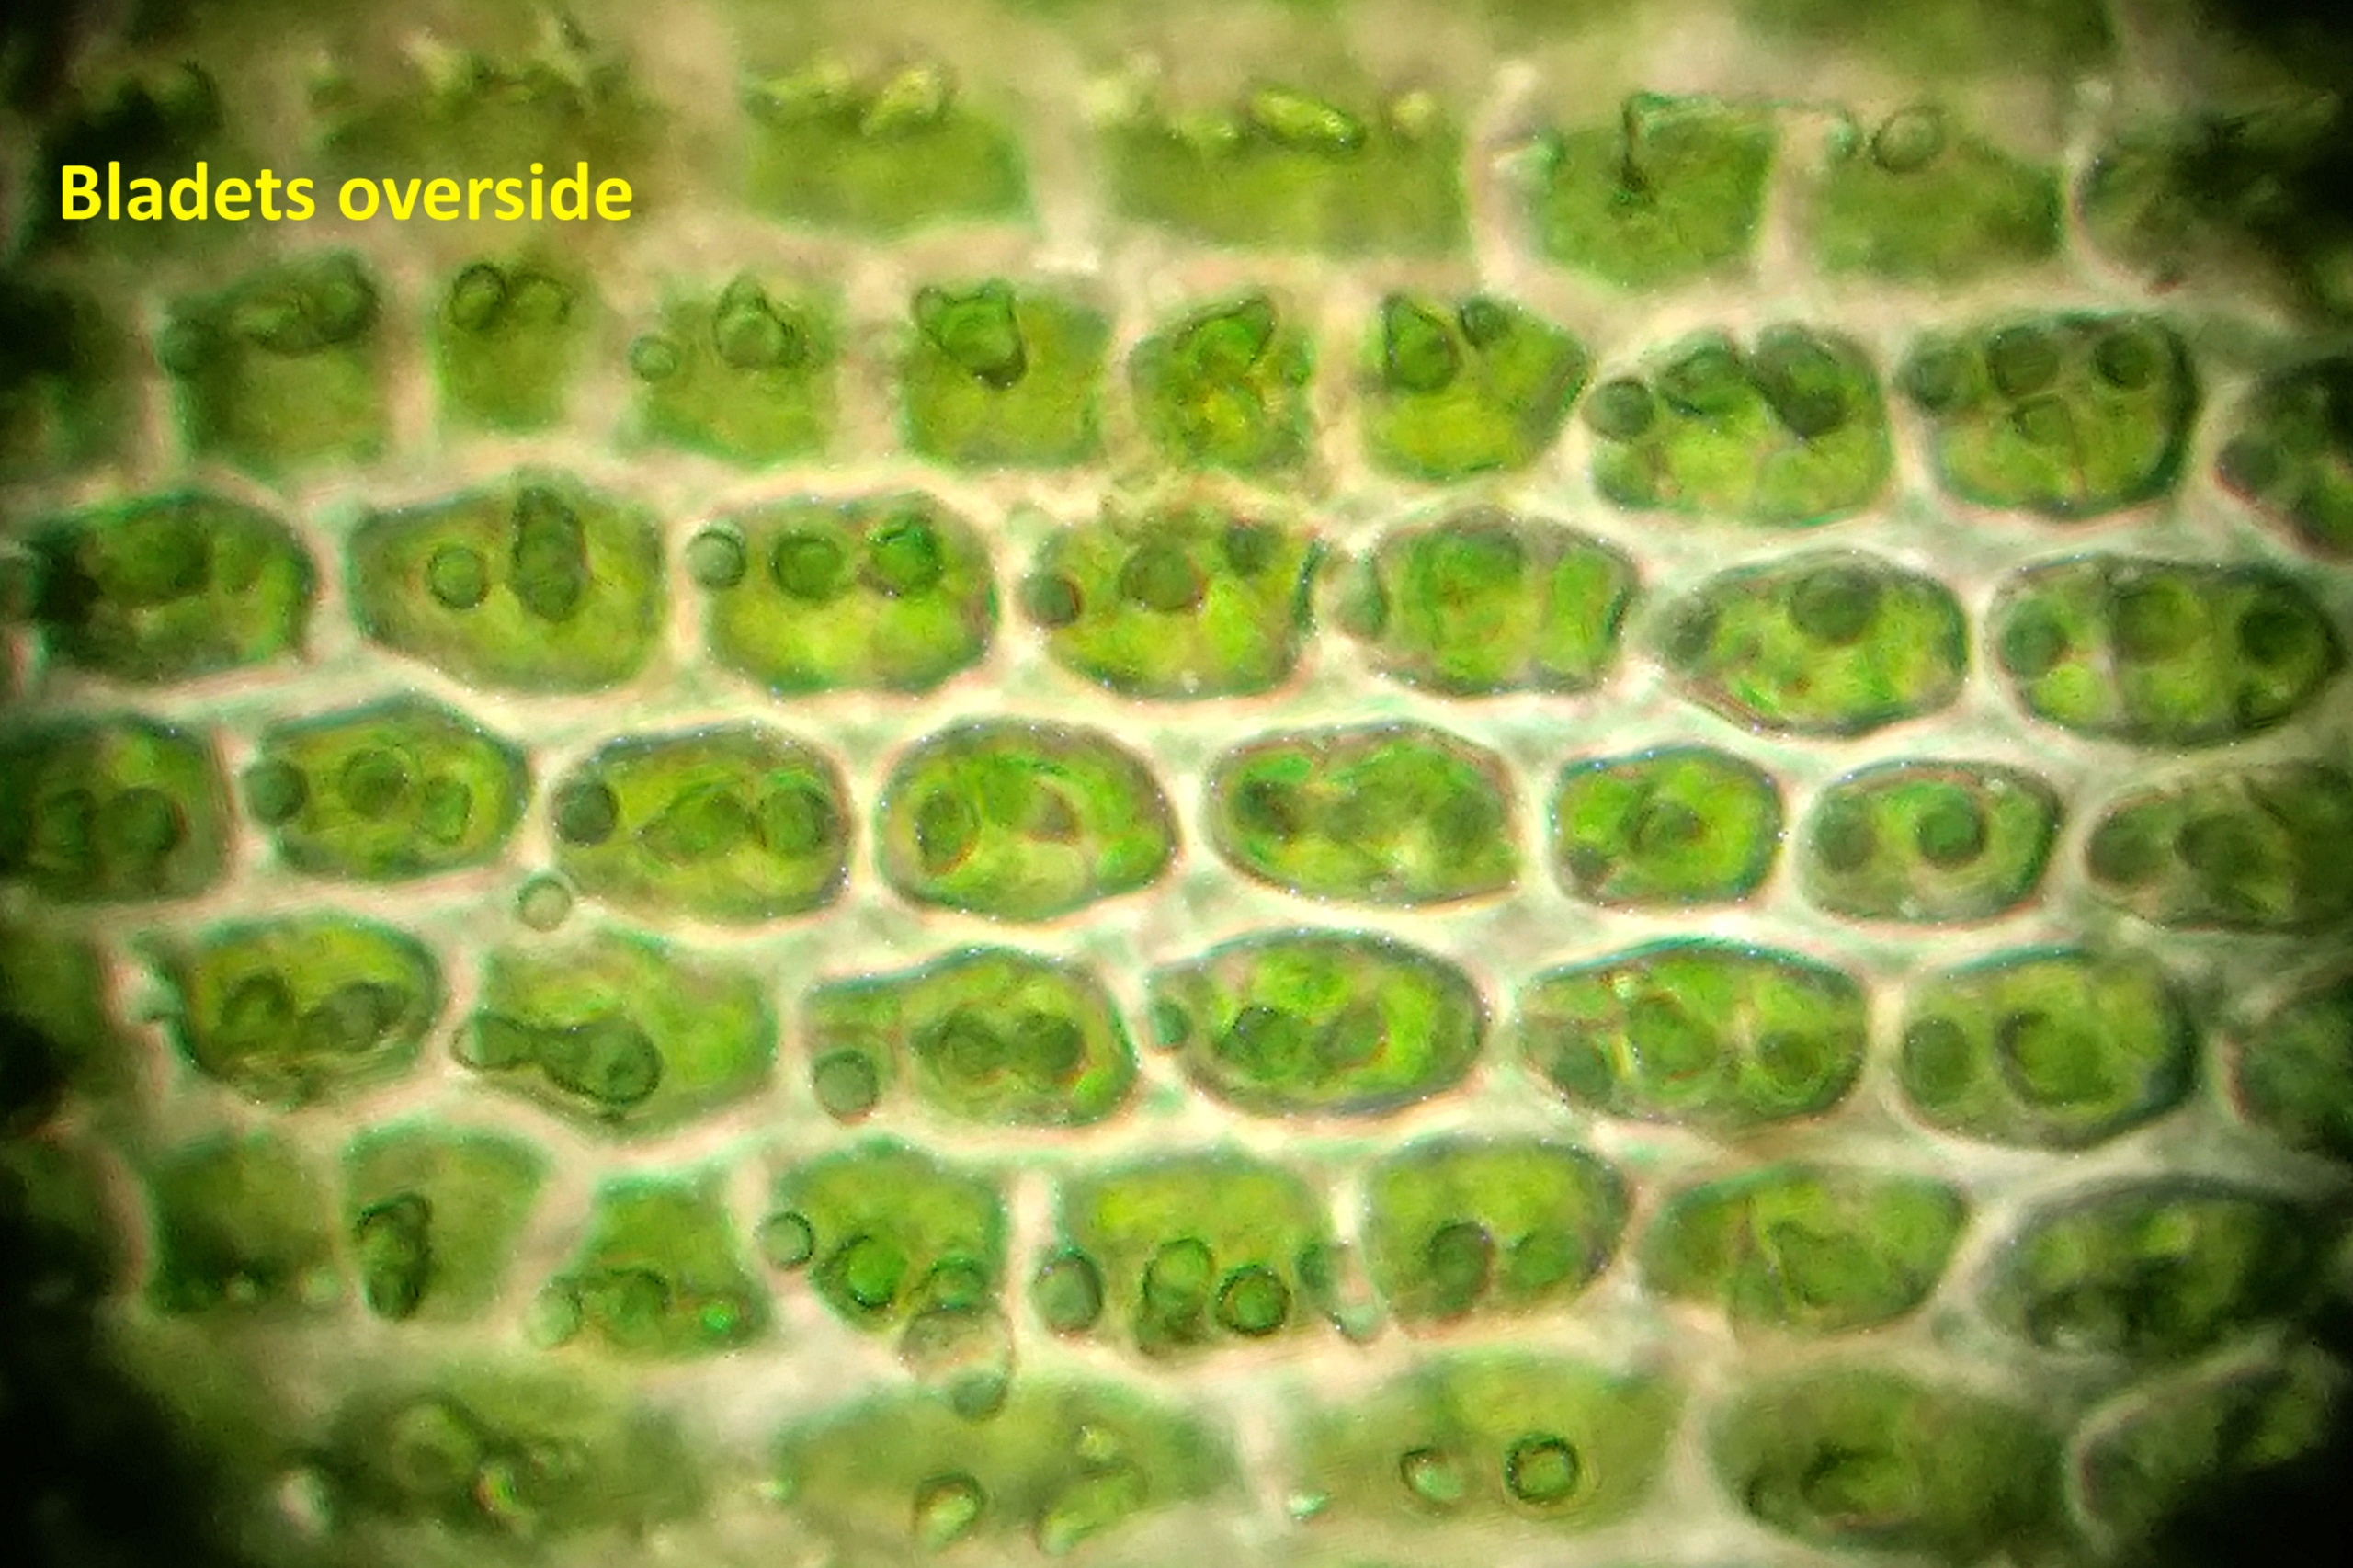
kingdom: Plantae
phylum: Bryophyta
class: Bryopsida
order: Hedwigiales
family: Hedwigiaceae
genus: Hedwigia
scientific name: Hedwigia ciliata
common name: Hvidspidset hedwigia
